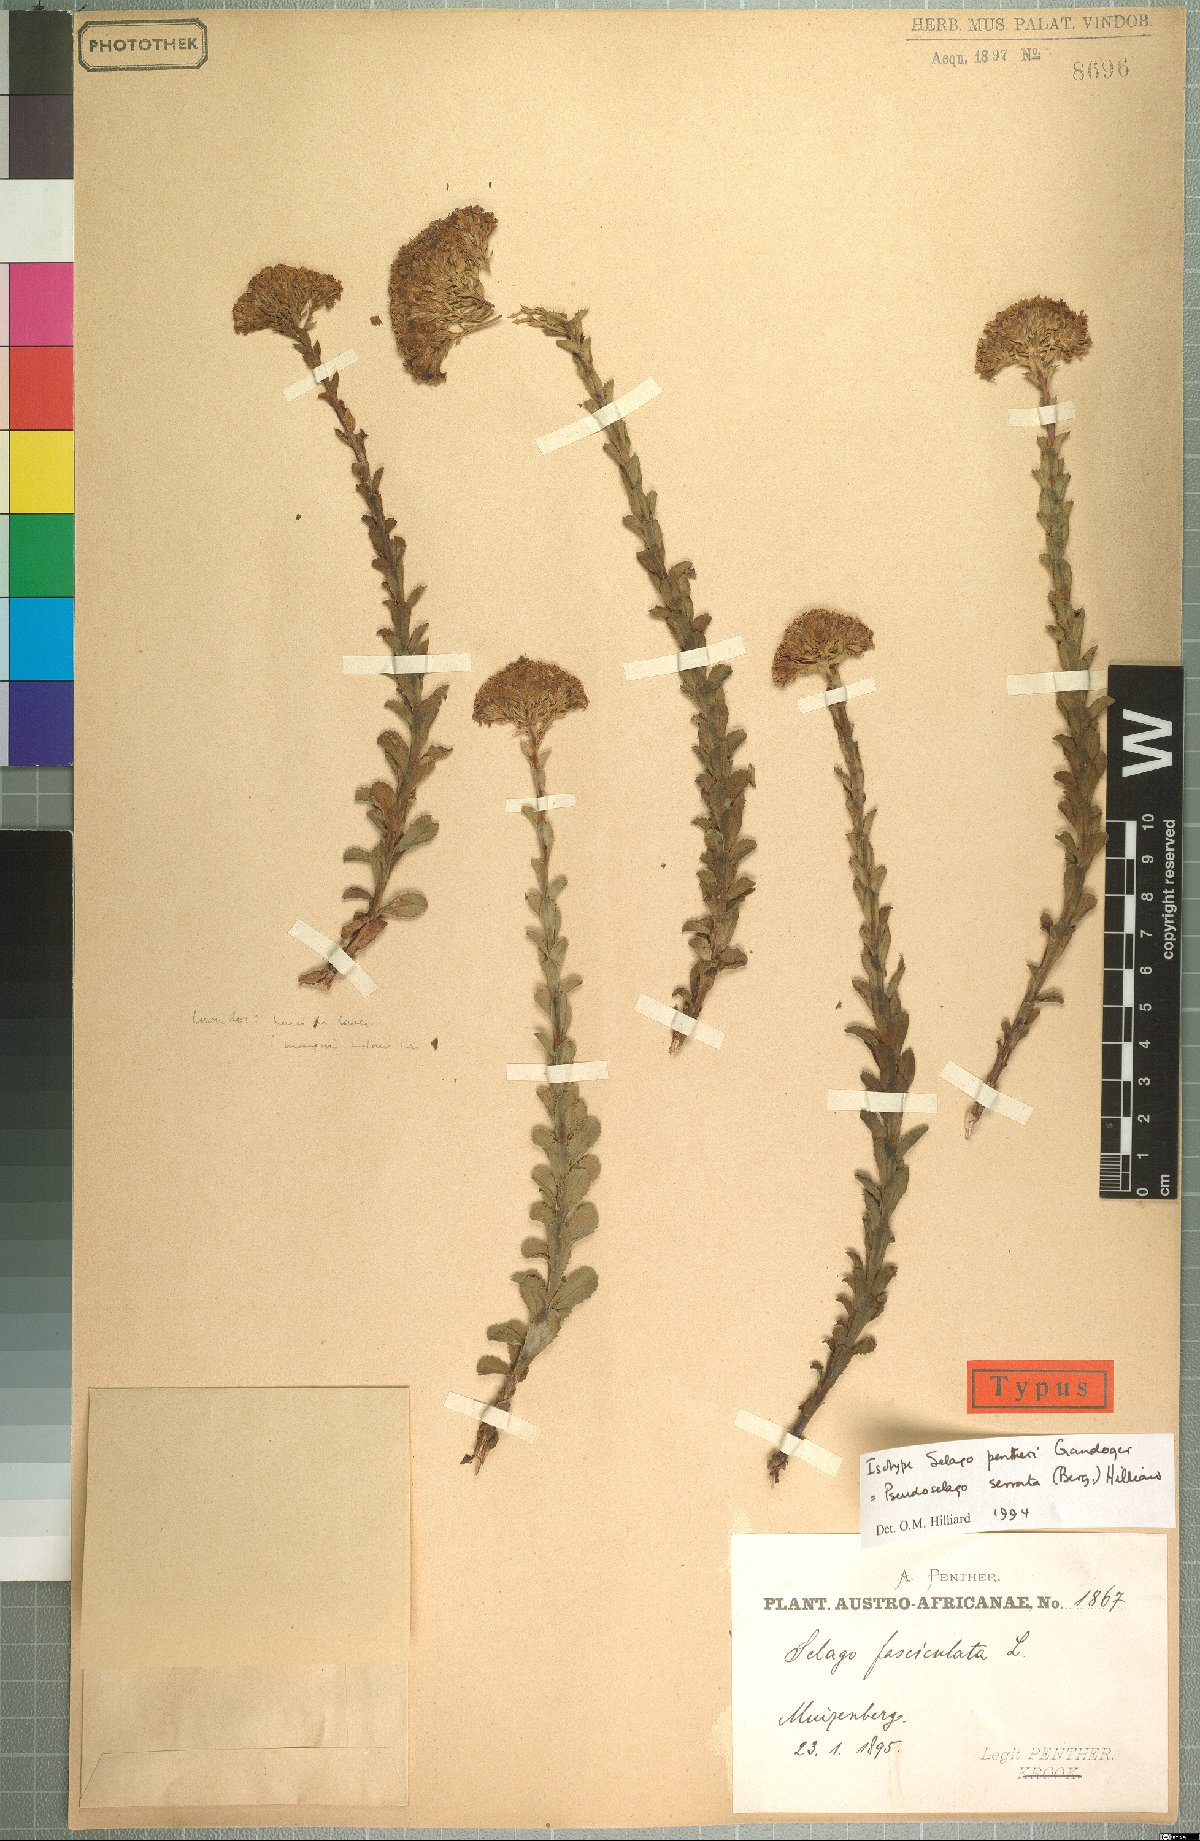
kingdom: Plantae
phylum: Tracheophyta
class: Magnoliopsida
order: Lamiales
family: Scrophulariaceae
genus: Pseudoselago
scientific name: Pseudoselago serrata
